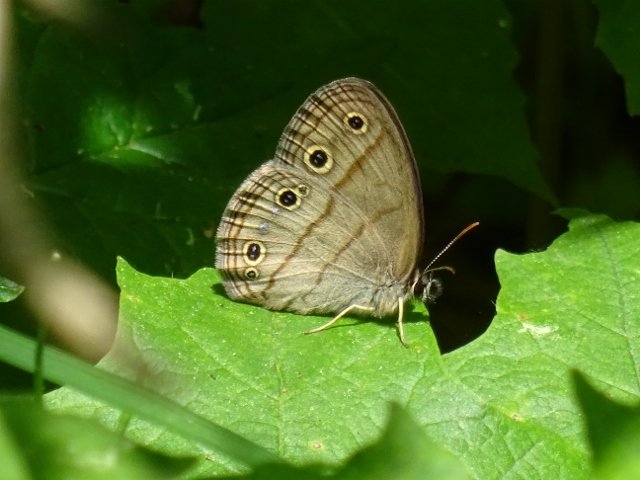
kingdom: Animalia
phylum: Arthropoda
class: Insecta
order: Lepidoptera
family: Nymphalidae
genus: Euptychia
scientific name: Euptychia cymela
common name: Little Wood Satyr
